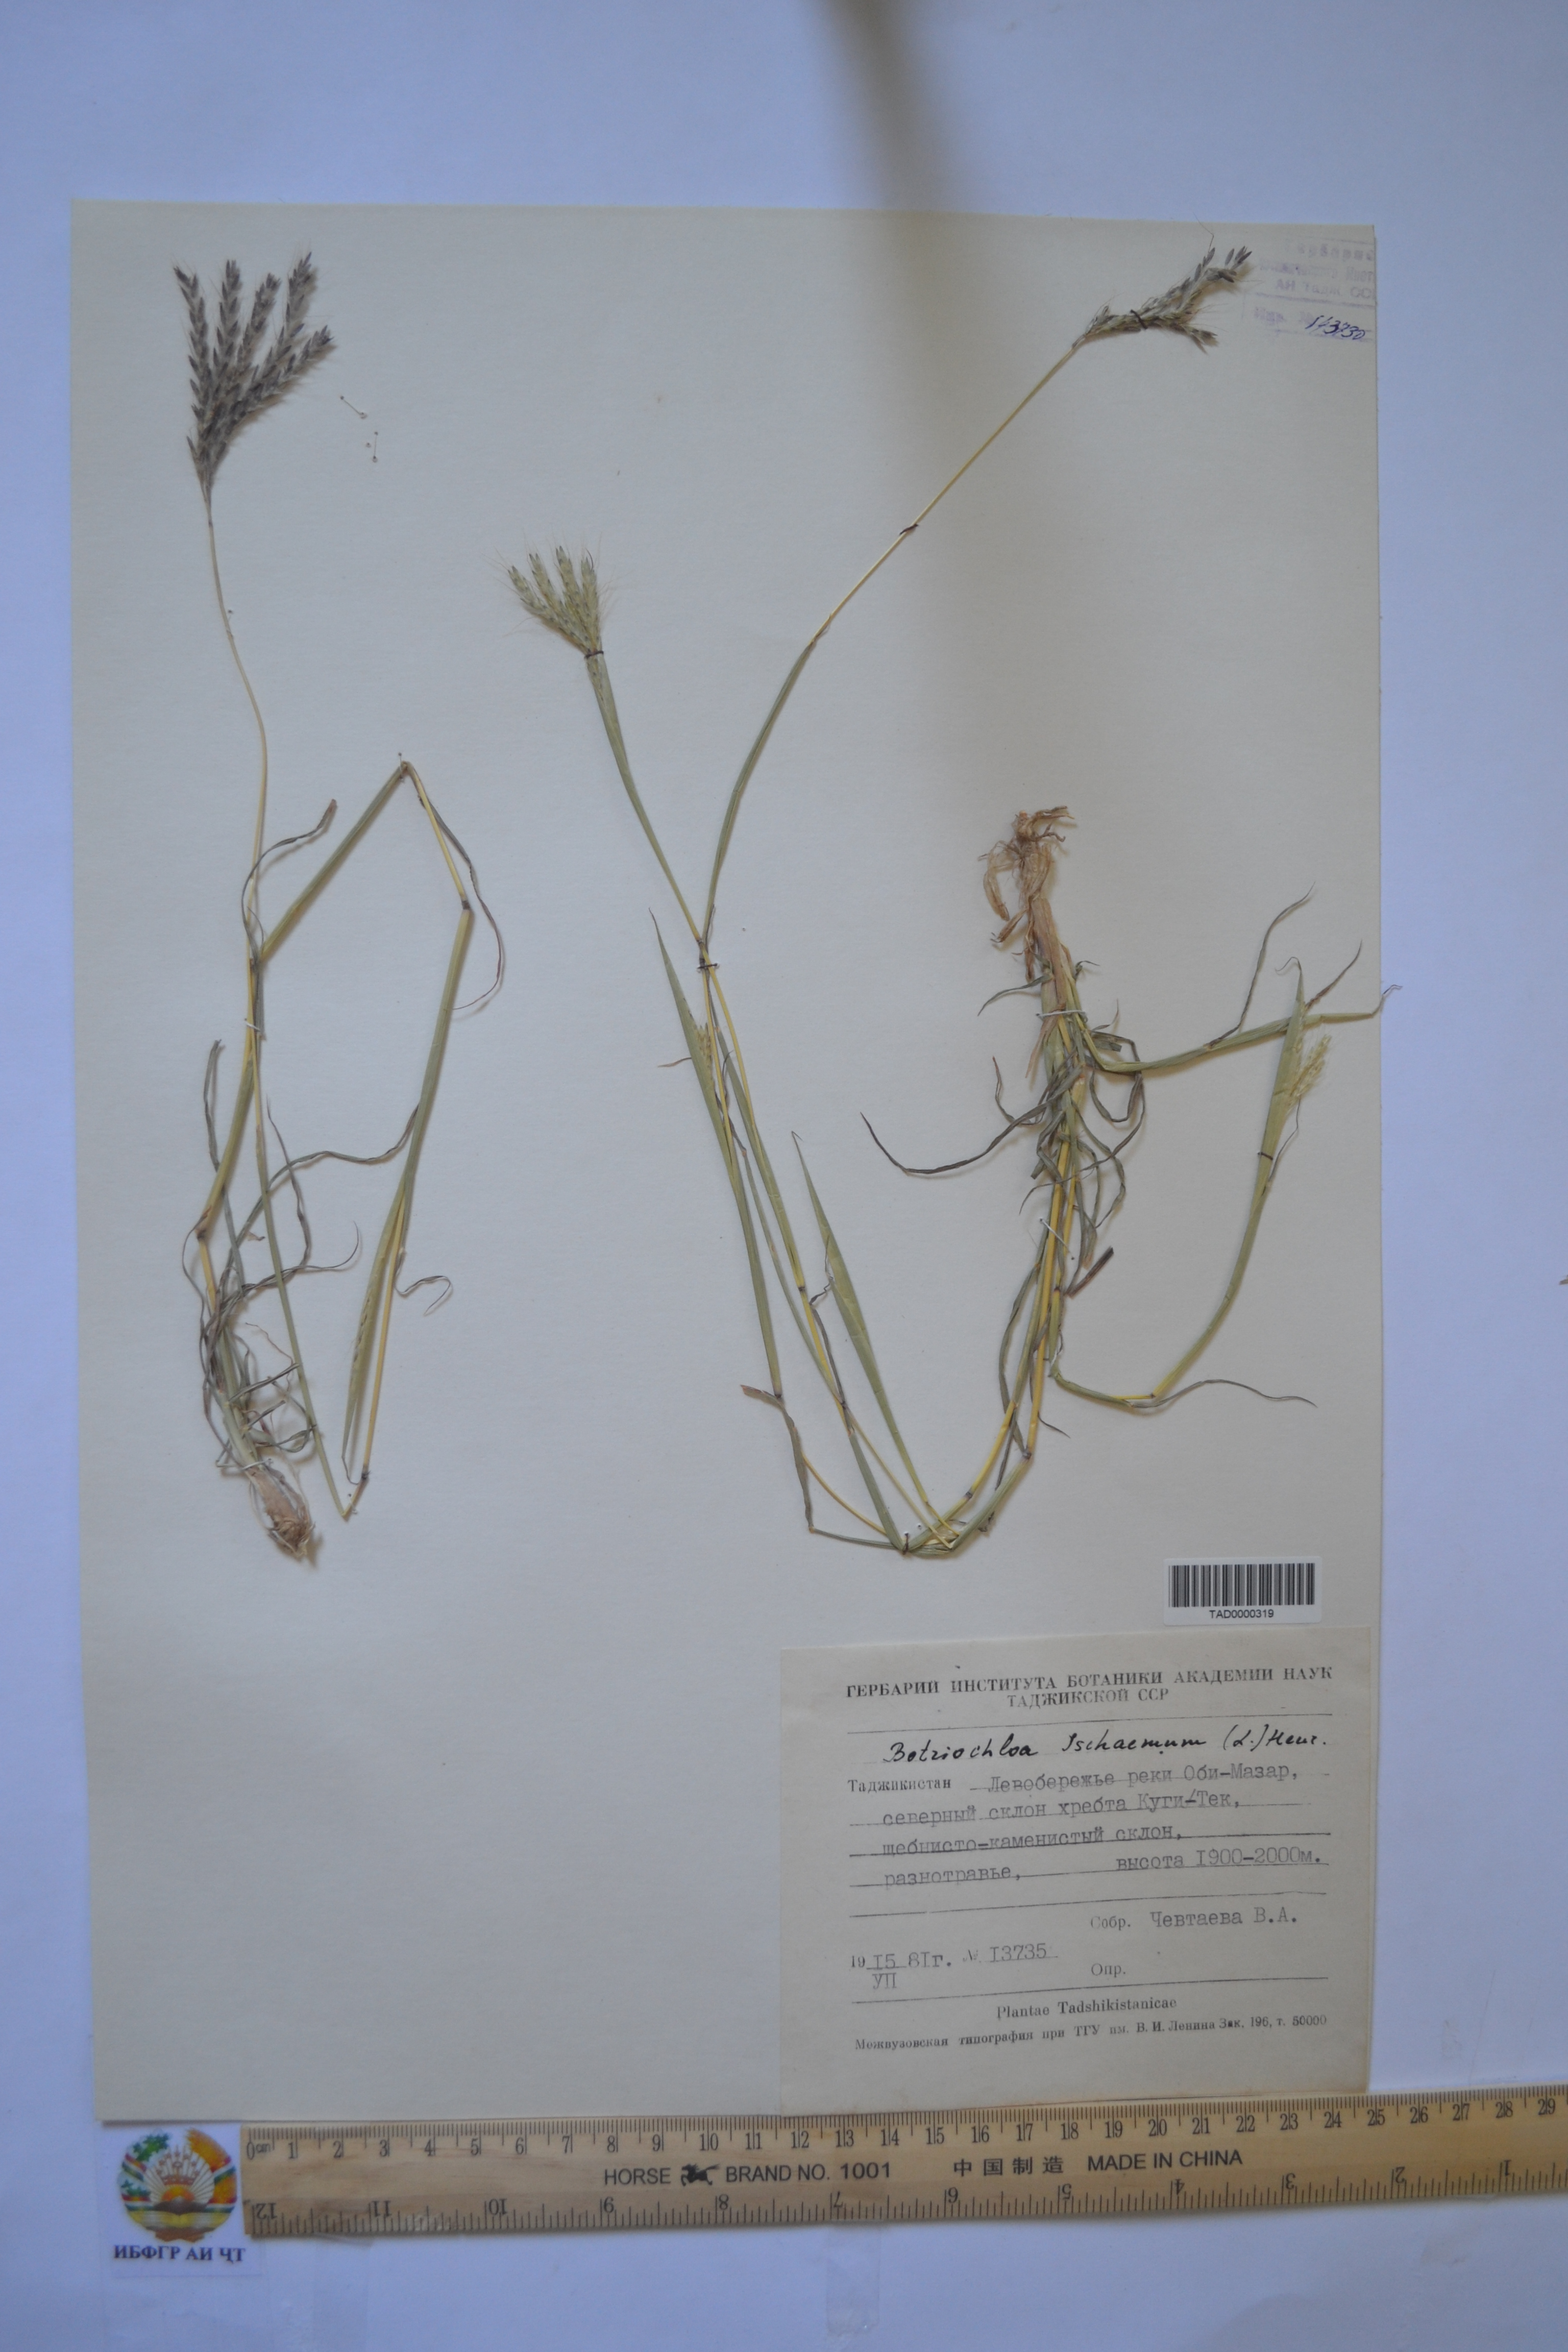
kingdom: Plantae
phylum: Tracheophyta
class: Liliopsida
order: Poales
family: Poaceae
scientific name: Poaceae
